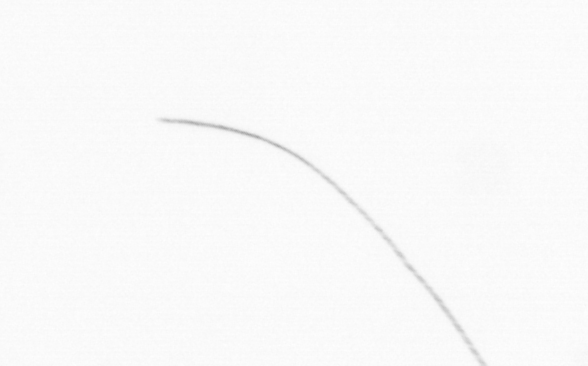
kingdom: Chromista
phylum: Ochrophyta
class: Bacillariophyceae
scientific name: Bacillariophyceae
